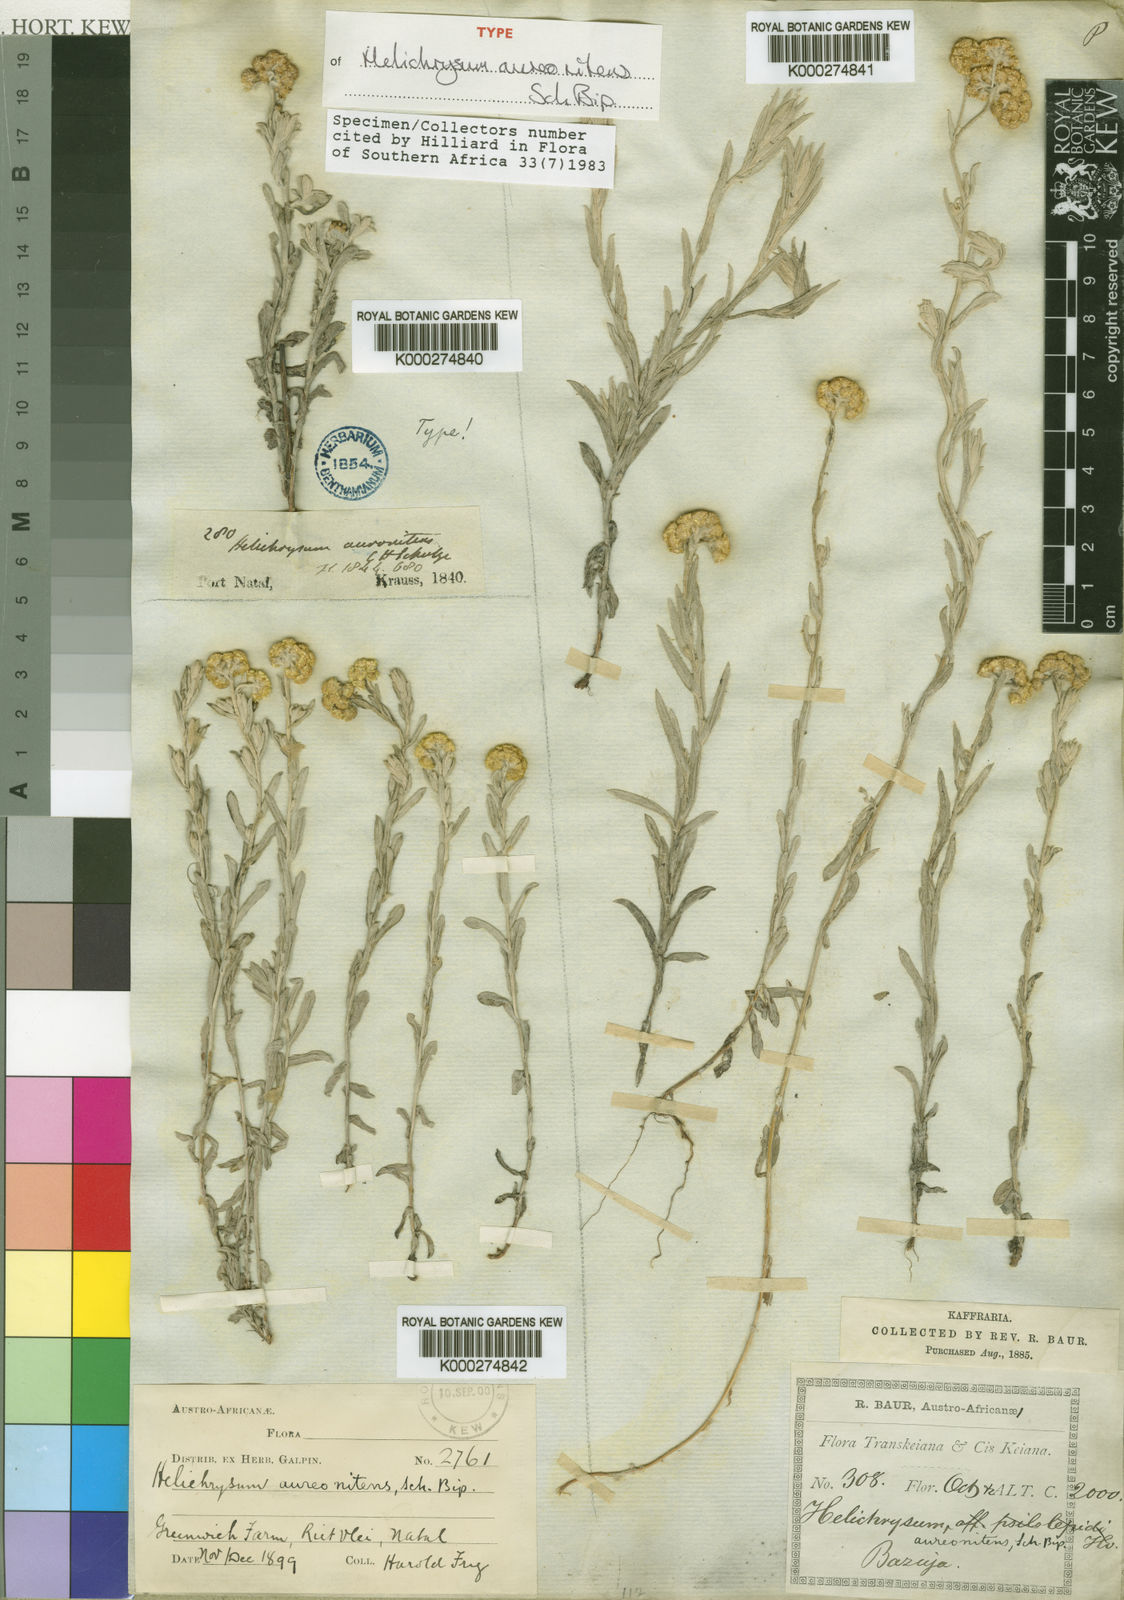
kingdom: Plantae
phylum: Tracheophyta
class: Magnoliopsida
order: Asterales
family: Asteraceae
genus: Helichrysum
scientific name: Helichrysum auronitens
